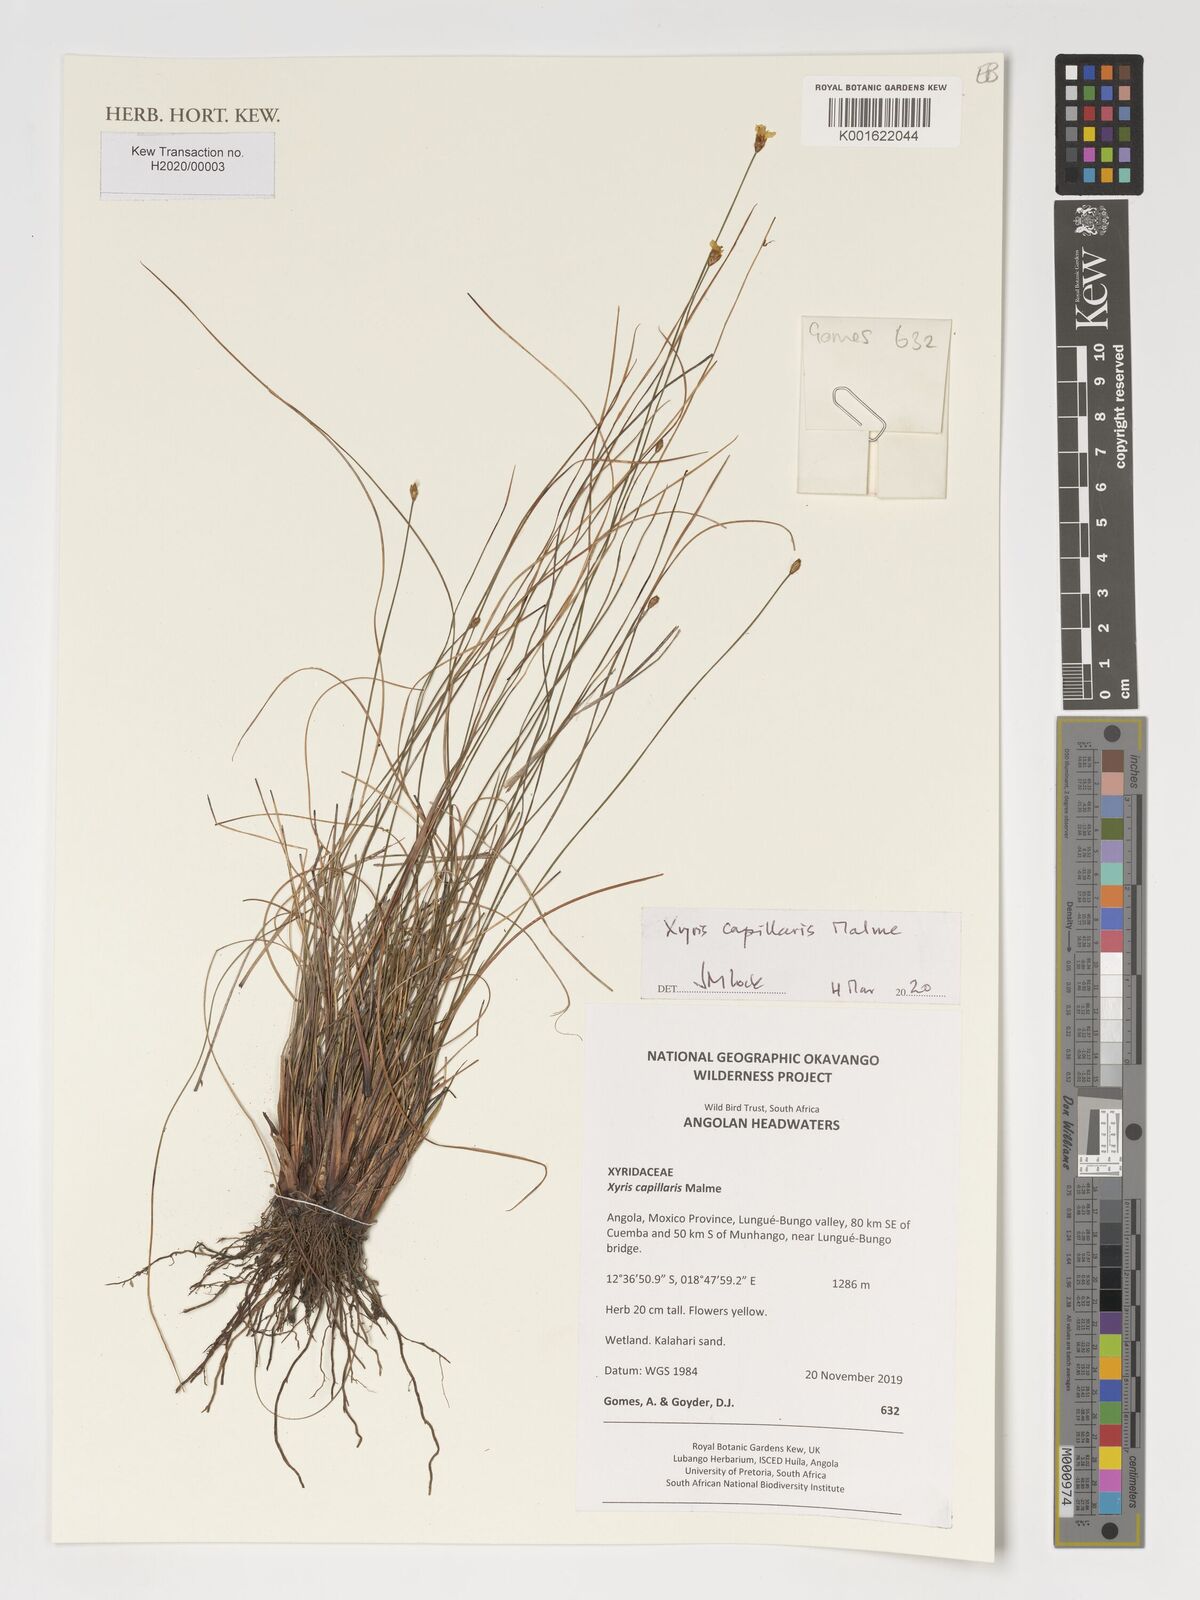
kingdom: Plantae
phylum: Tracheophyta
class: Liliopsida
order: Poales
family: Xyridaceae
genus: Xyris
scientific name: Xyris capillaris
